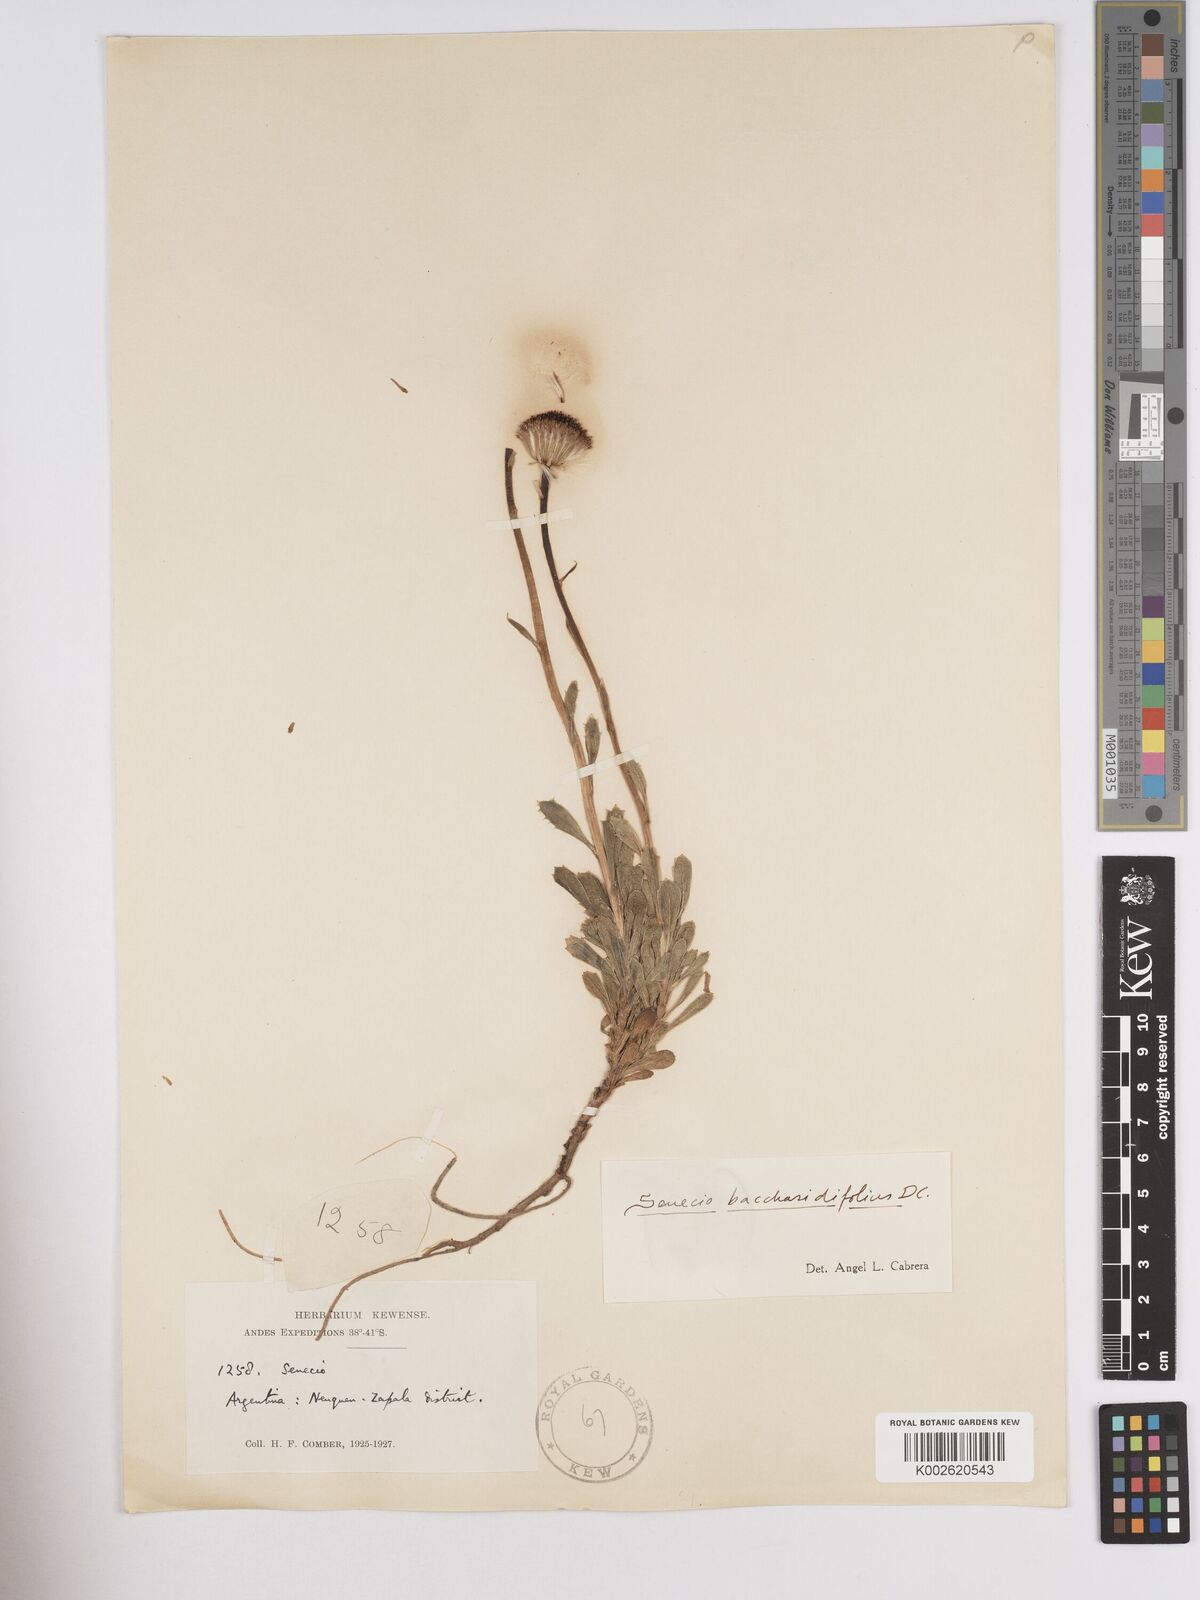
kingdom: Plantae
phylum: Tracheophyta
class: Magnoliopsida
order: Asterales
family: Asteraceae
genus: Senecio
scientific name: Senecio baccharidifolius
